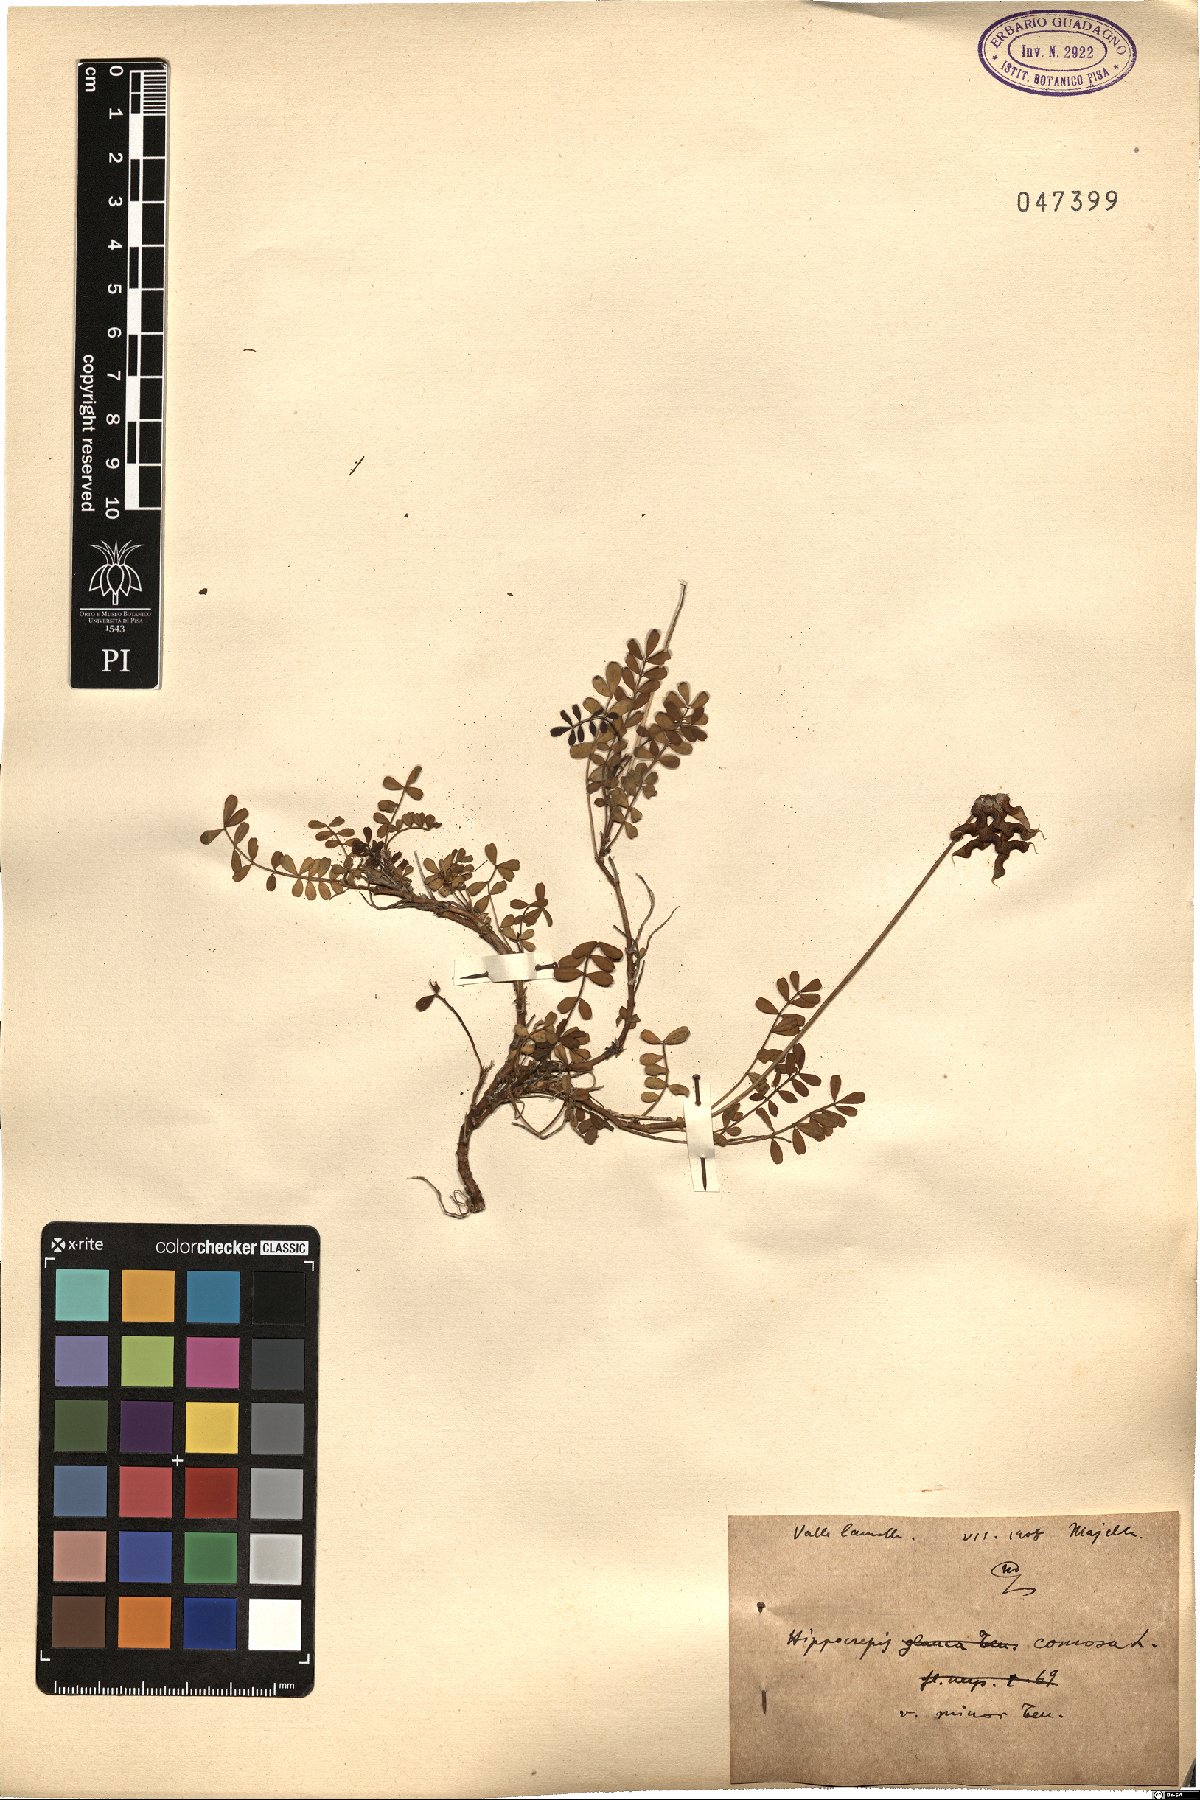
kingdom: Plantae
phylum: Tracheophyta
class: Magnoliopsida
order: Fabales
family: Fabaceae
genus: Hippocrepis
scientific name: Hippocrepis comosa
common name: Horseshoe vetch
